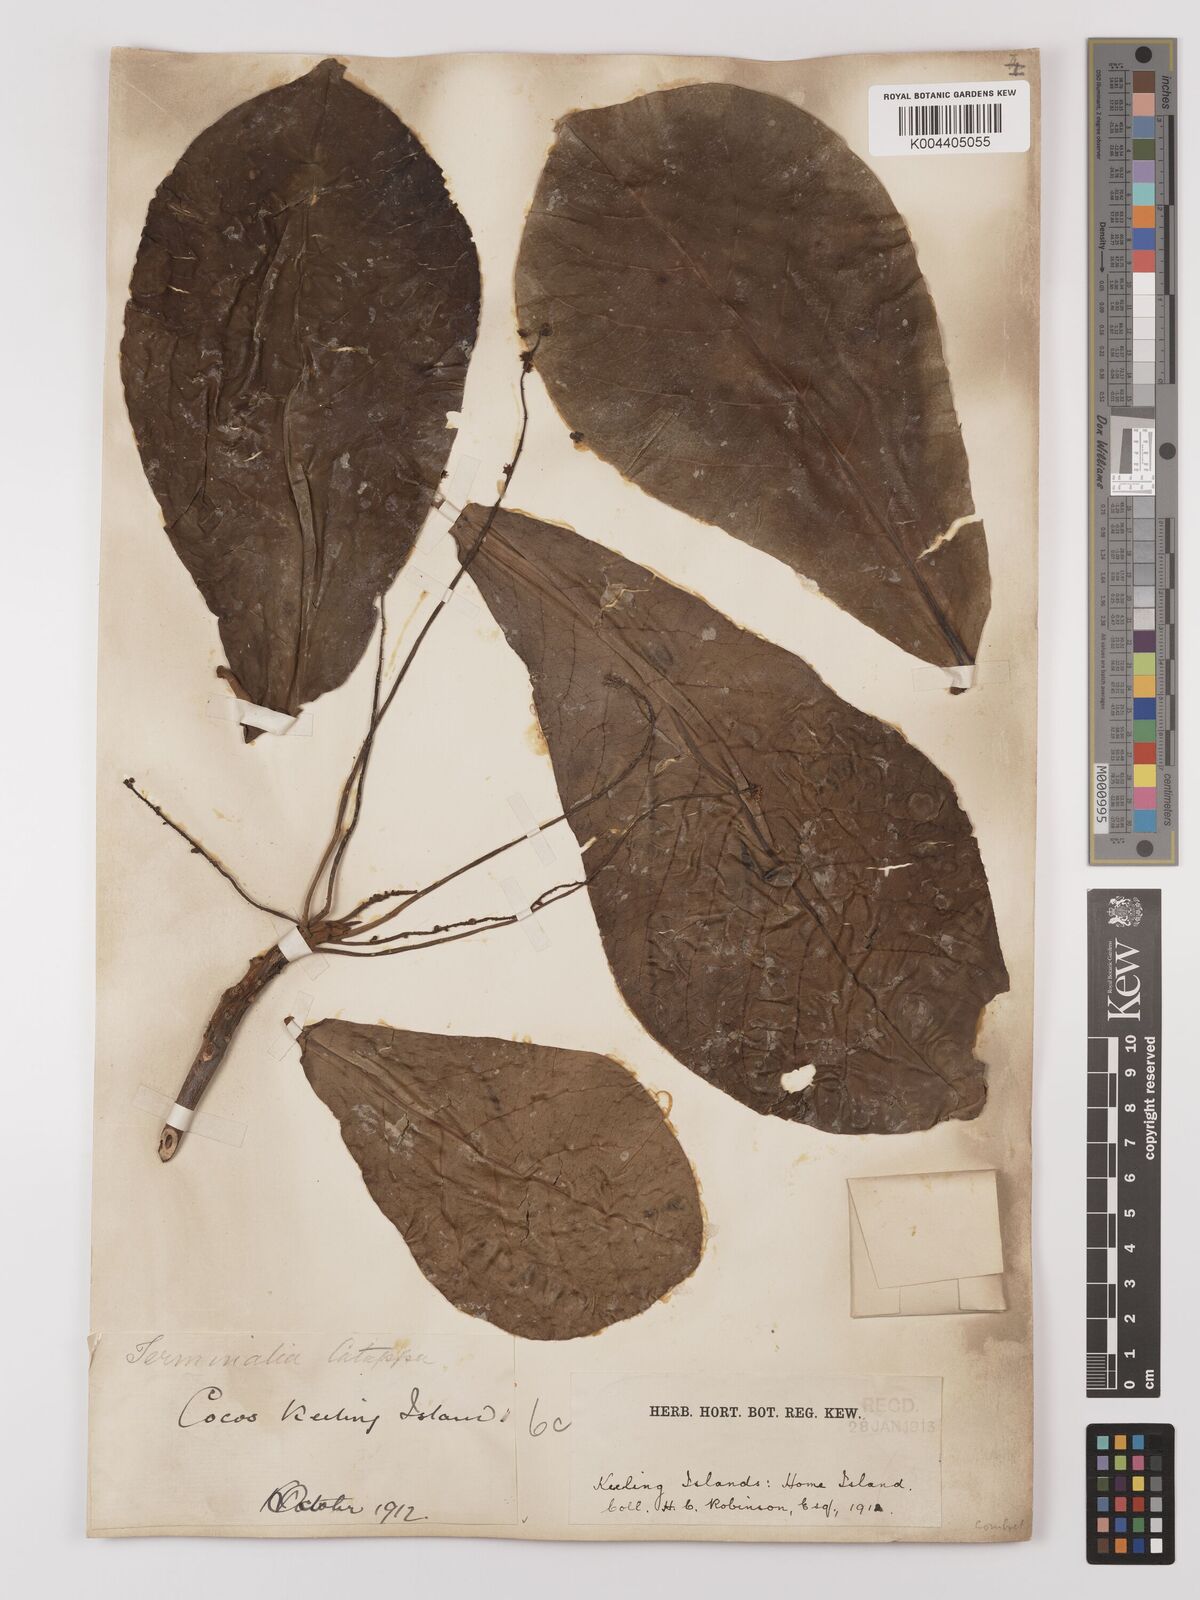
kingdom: Plantae
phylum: Tracheophyta
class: Magnoliopsida
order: Myrtales
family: Combretaceae
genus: Terminalia
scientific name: Terminalia catappa
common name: Tropical almond
